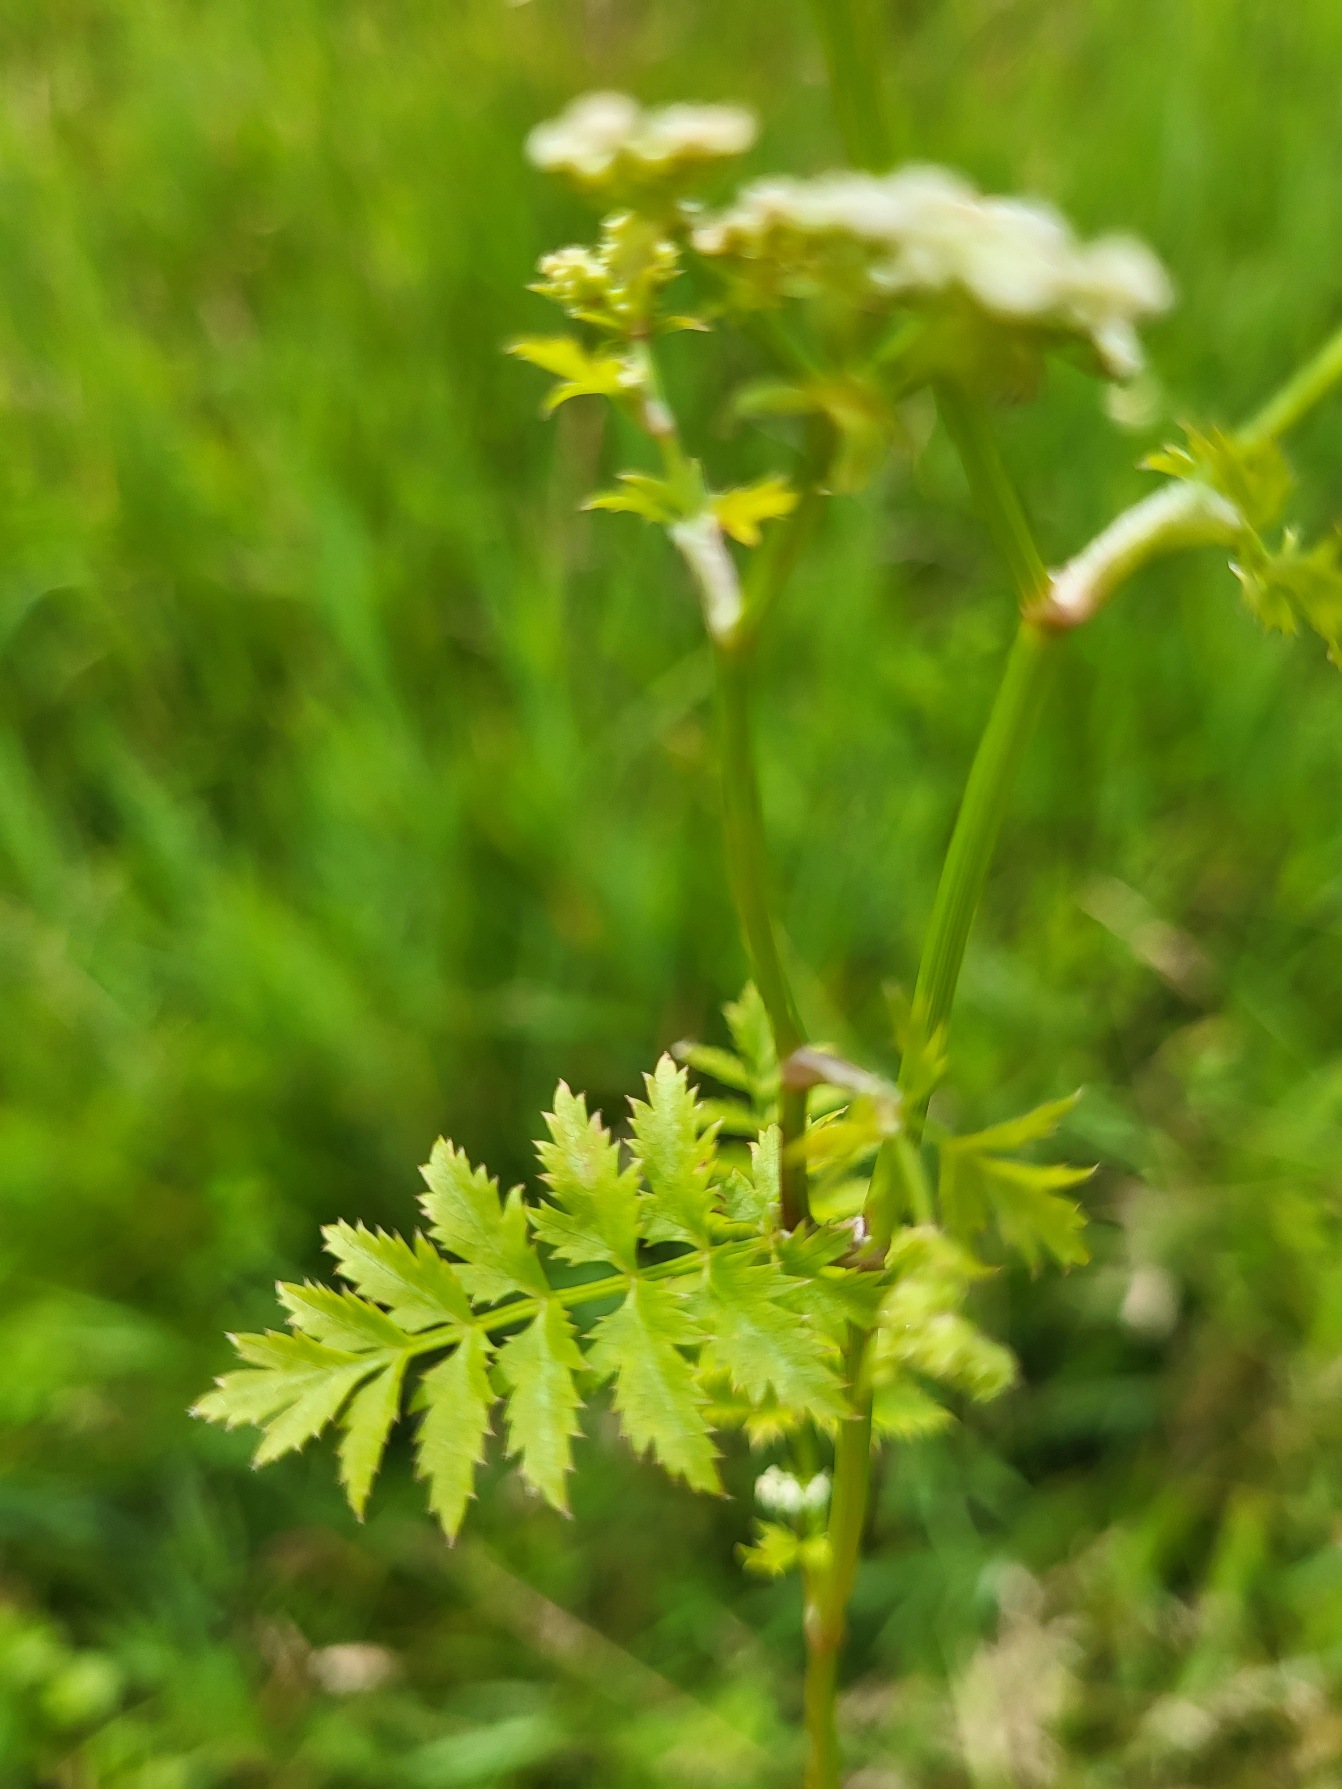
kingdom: Plantae
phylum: Tracheophyta
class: Magnoliopsida
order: Apiales
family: Apiaceae
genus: Berula
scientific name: Berula erecta
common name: Sideskærm
